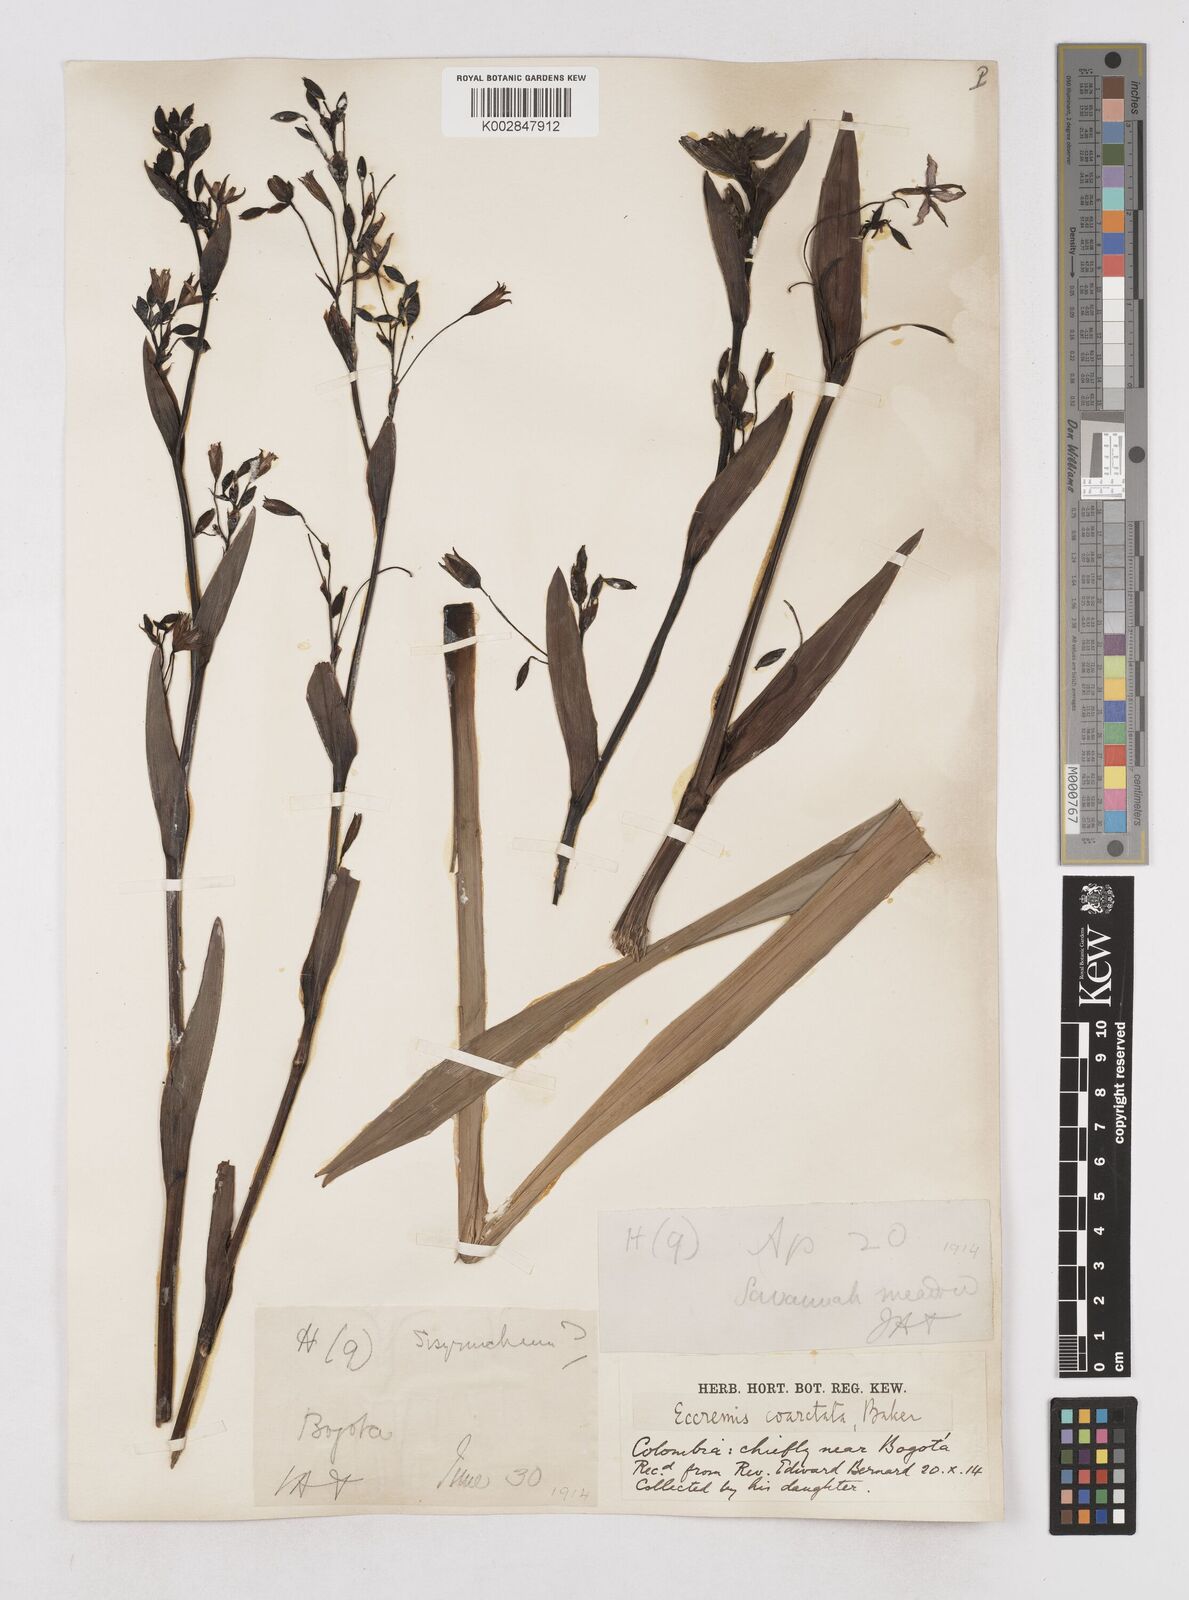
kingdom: Plantae
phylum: Tracheophyta
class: Liliopsida
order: Asparagales
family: Asphodelaceae
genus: Excremis
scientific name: Excremis coarctata
